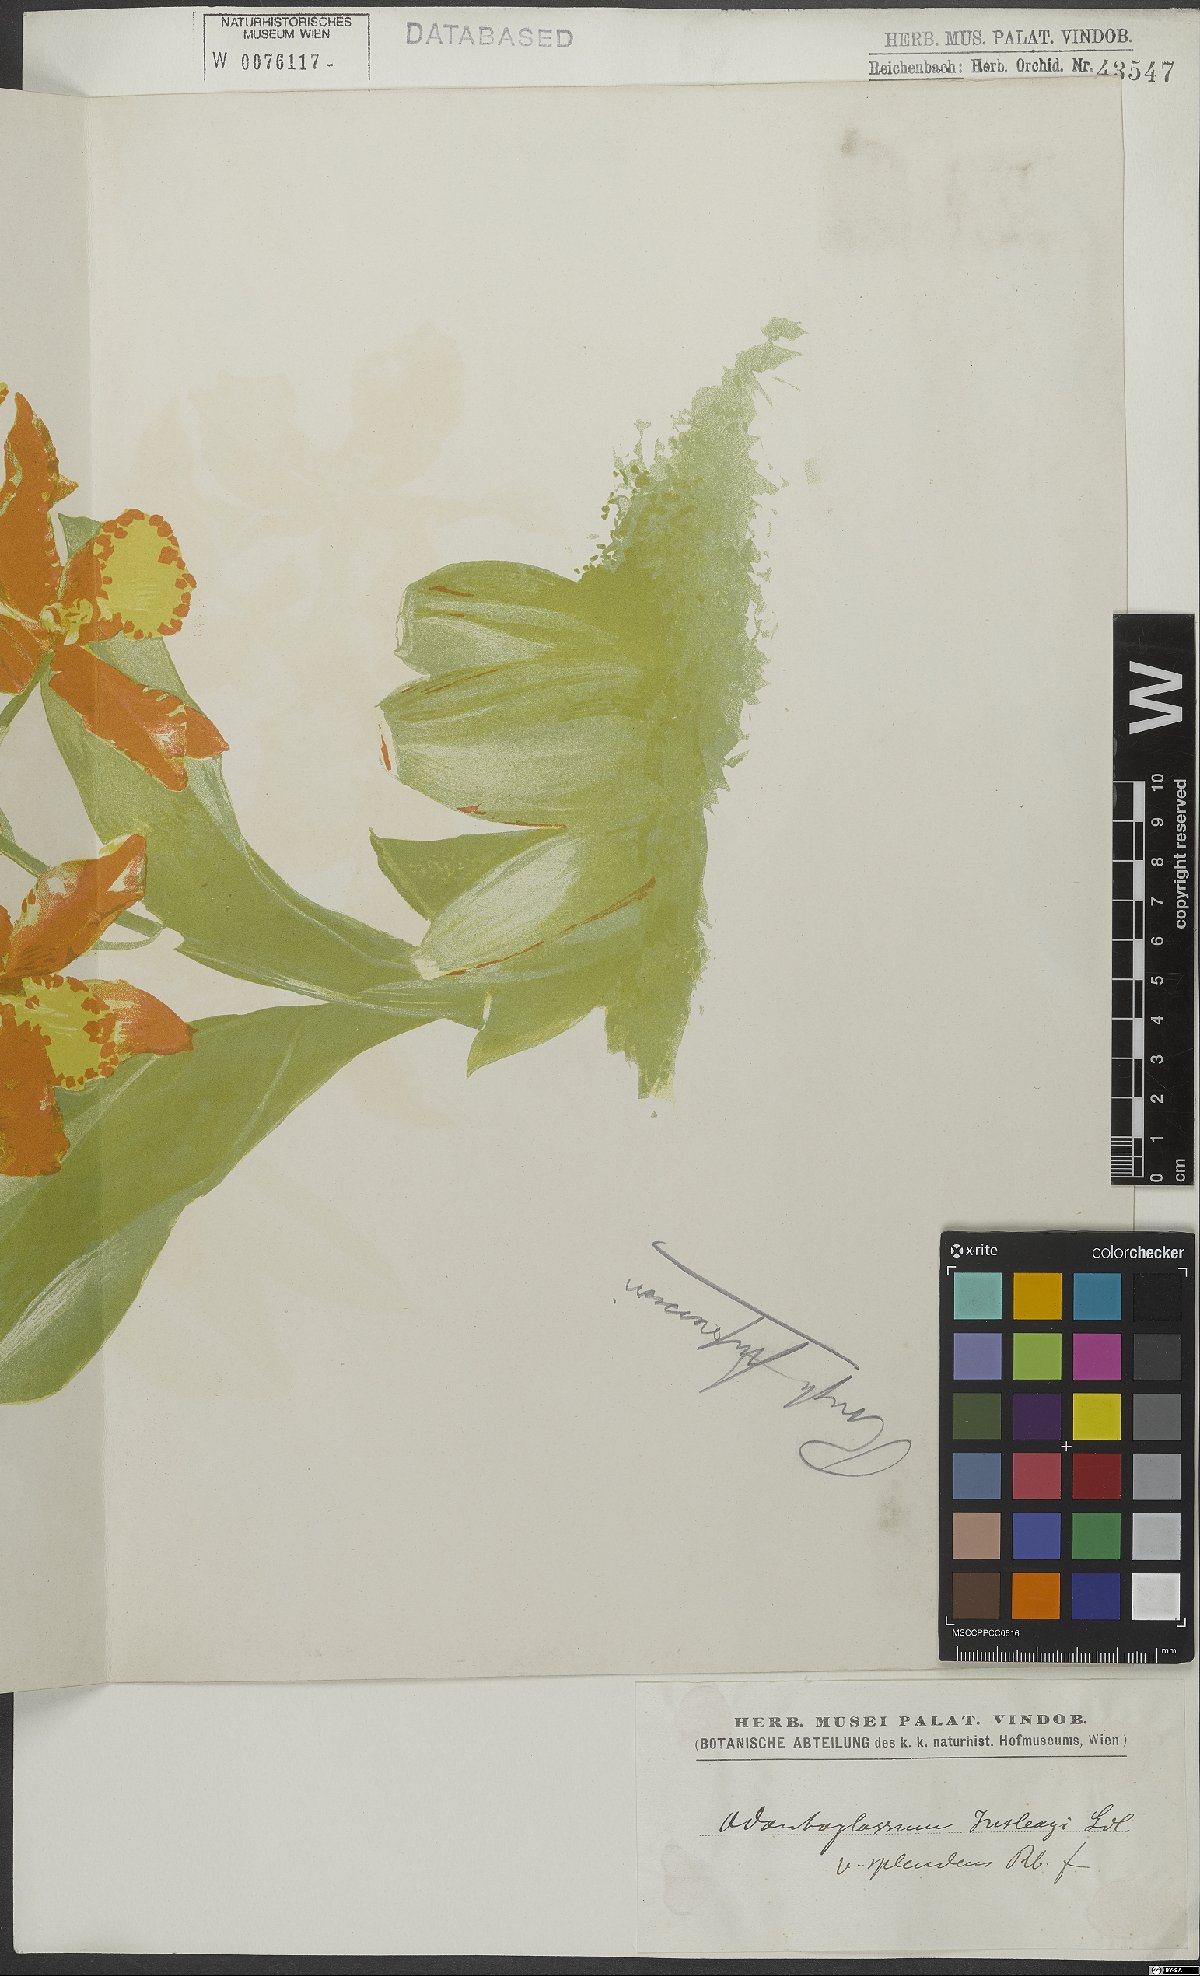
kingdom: Plantae
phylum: Tracheophyta
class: Liliopsida
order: Asparagales
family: Orchidaceae
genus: Rossioglossum
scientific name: Rossioglossum splendens
